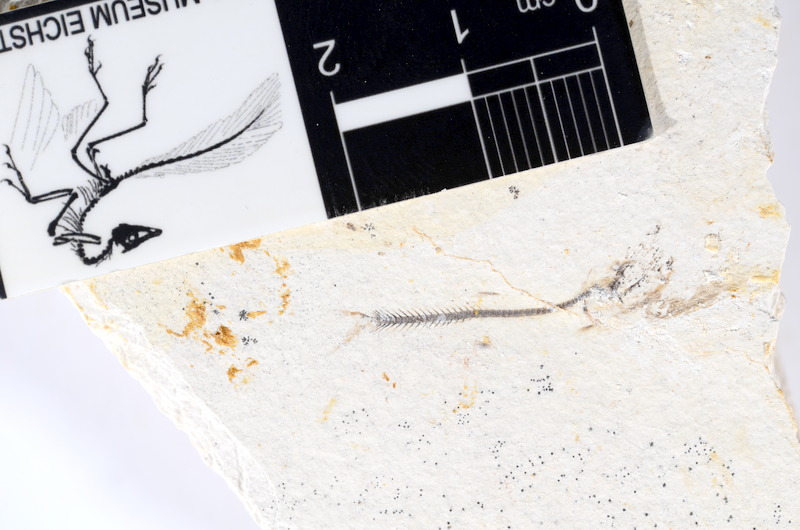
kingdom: Animalia
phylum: Chordata
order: Salmoniformes
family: Orthogonikleithridae
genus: Orthogonikleithrus
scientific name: Orthogonikleithrus hoelli
